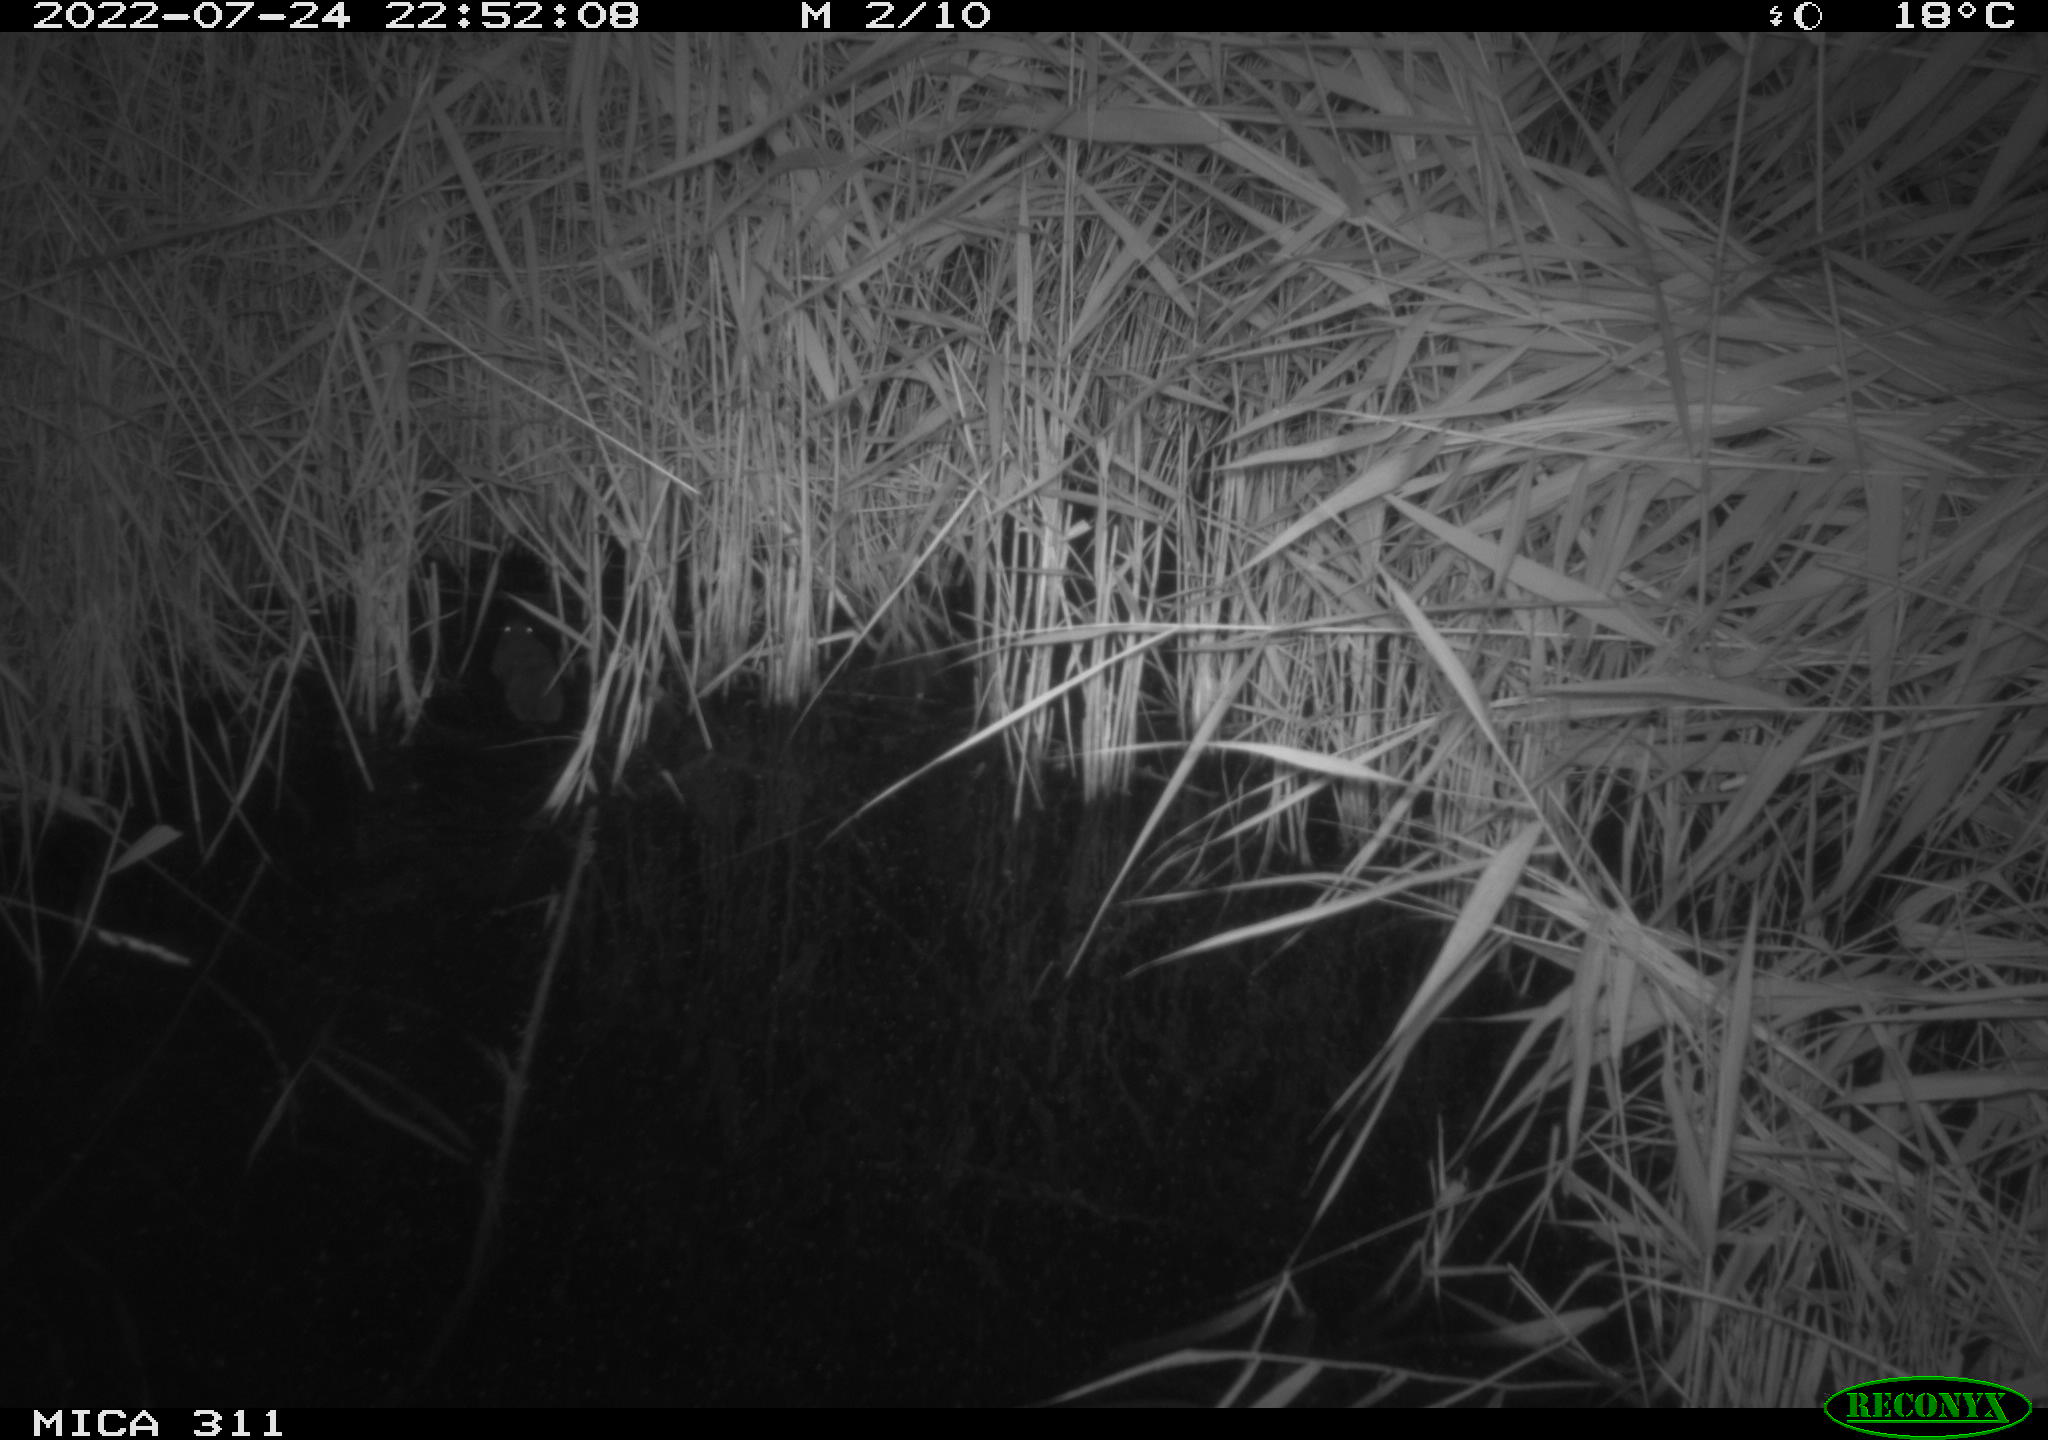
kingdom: Animalia
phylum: Chordata
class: Mammalia
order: Rodentia
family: Muridae
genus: Rattus
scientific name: Rattus norvegicus
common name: Brown rat
